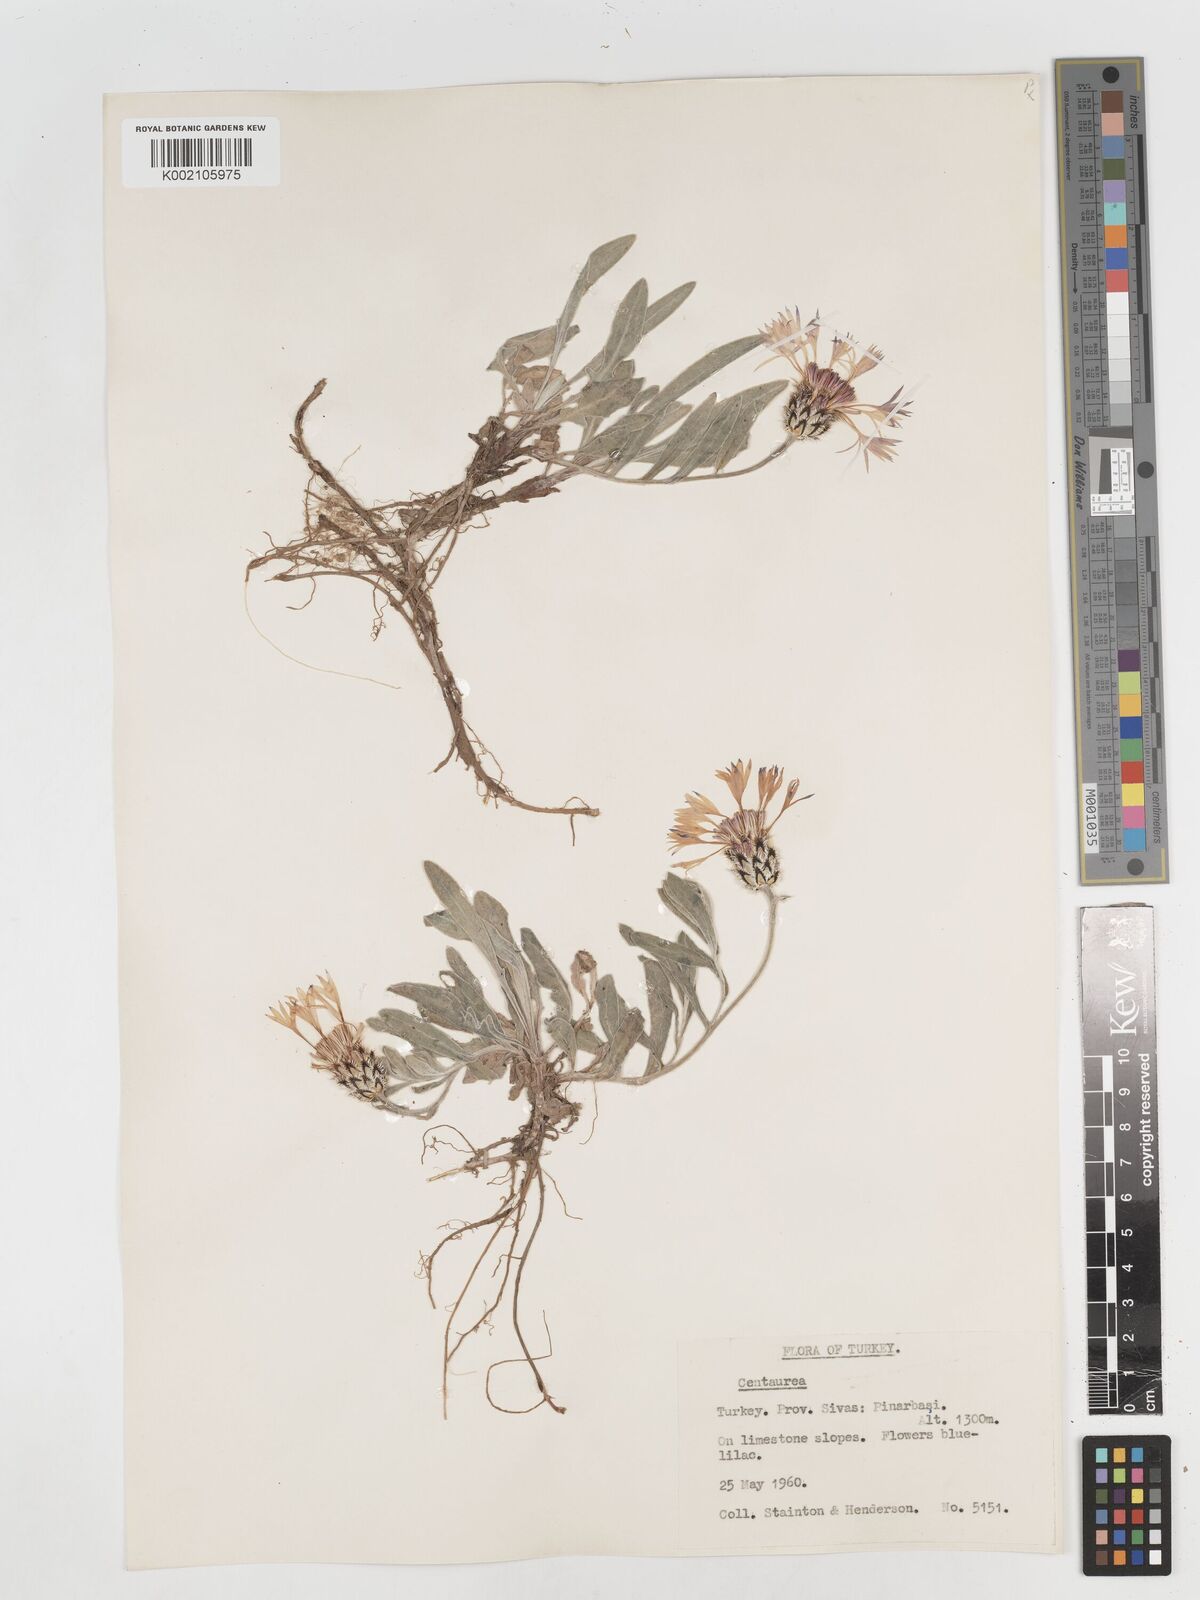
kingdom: Plantae
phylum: Tracheophyta
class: Magnoliopsida
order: Asterales
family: Asteraceae
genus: Centaurea
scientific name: Centaurea
